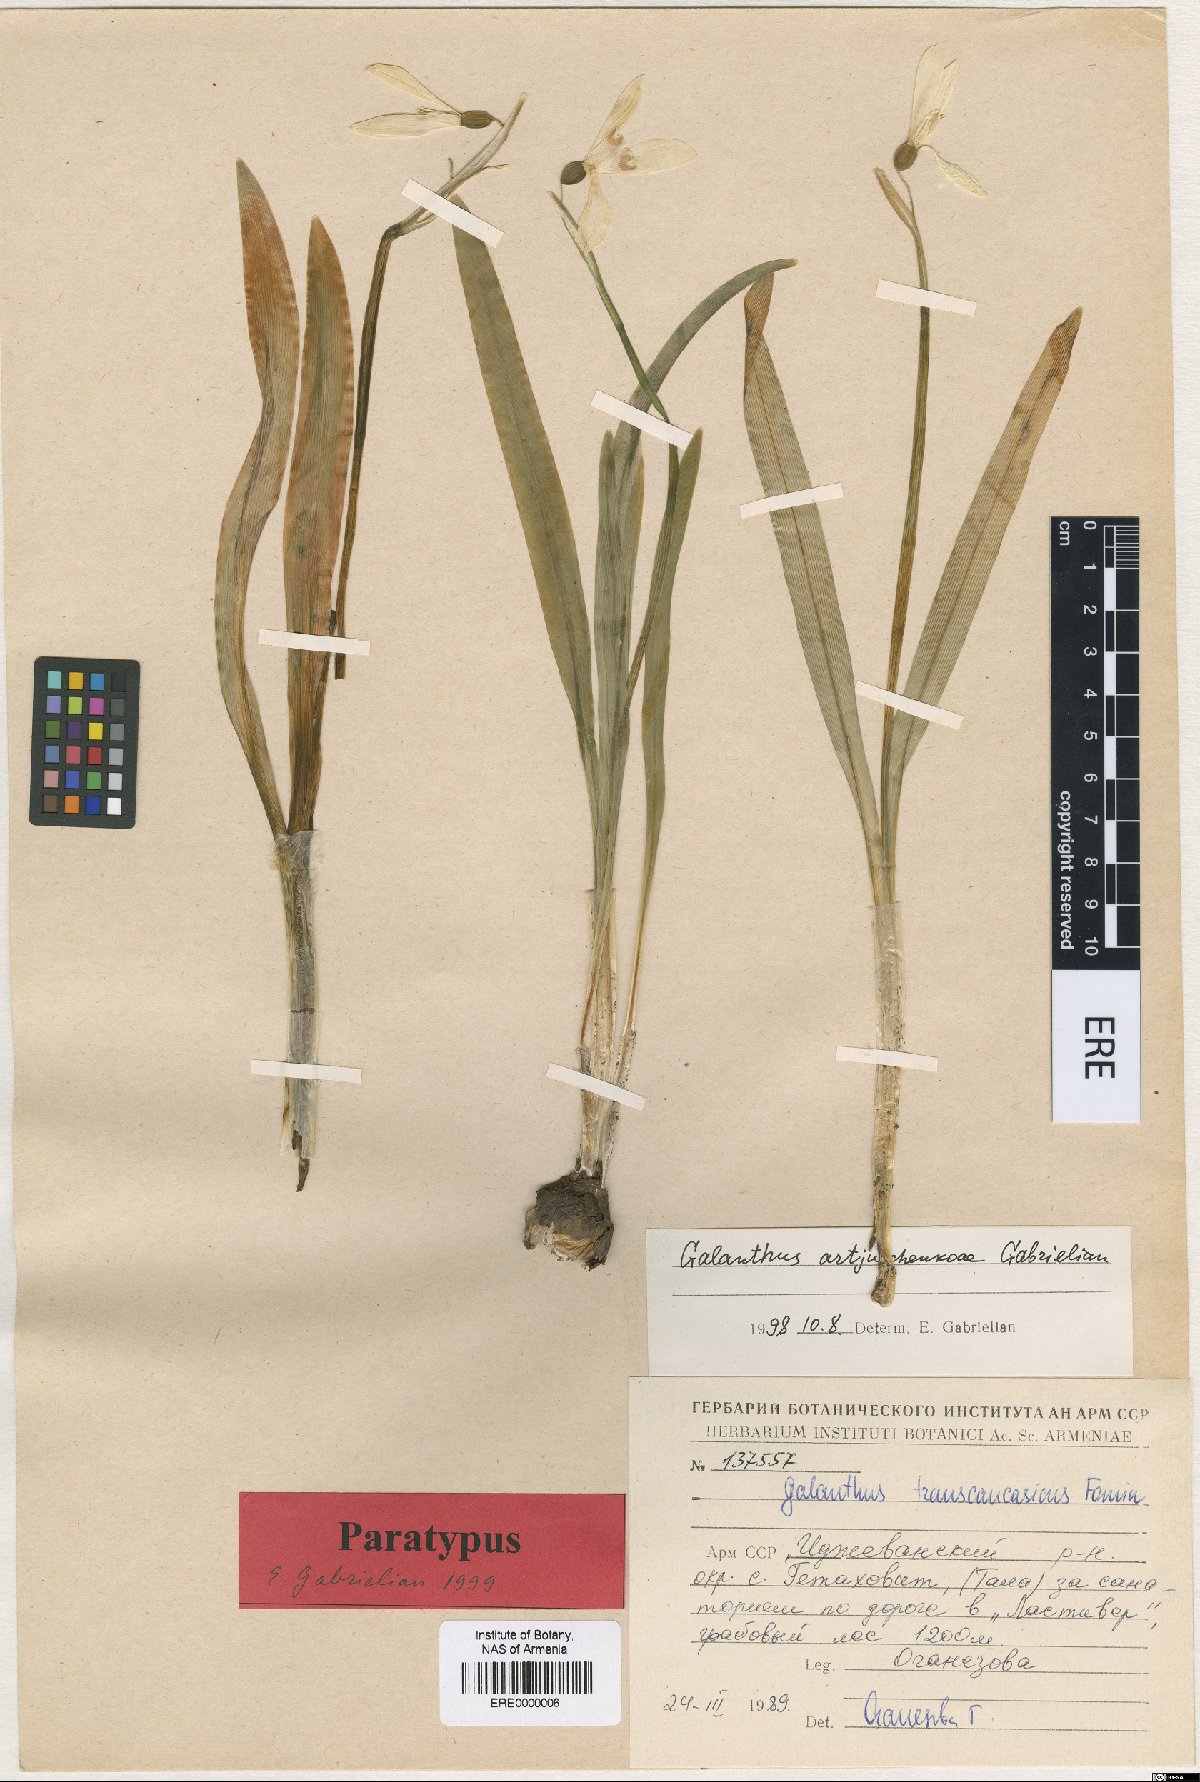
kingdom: Plantae
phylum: Tracheophyta
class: Liliopsida
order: Asparagales
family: Amaryllidaceae
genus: Galanthus
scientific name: Galanthus transcaucasicus
